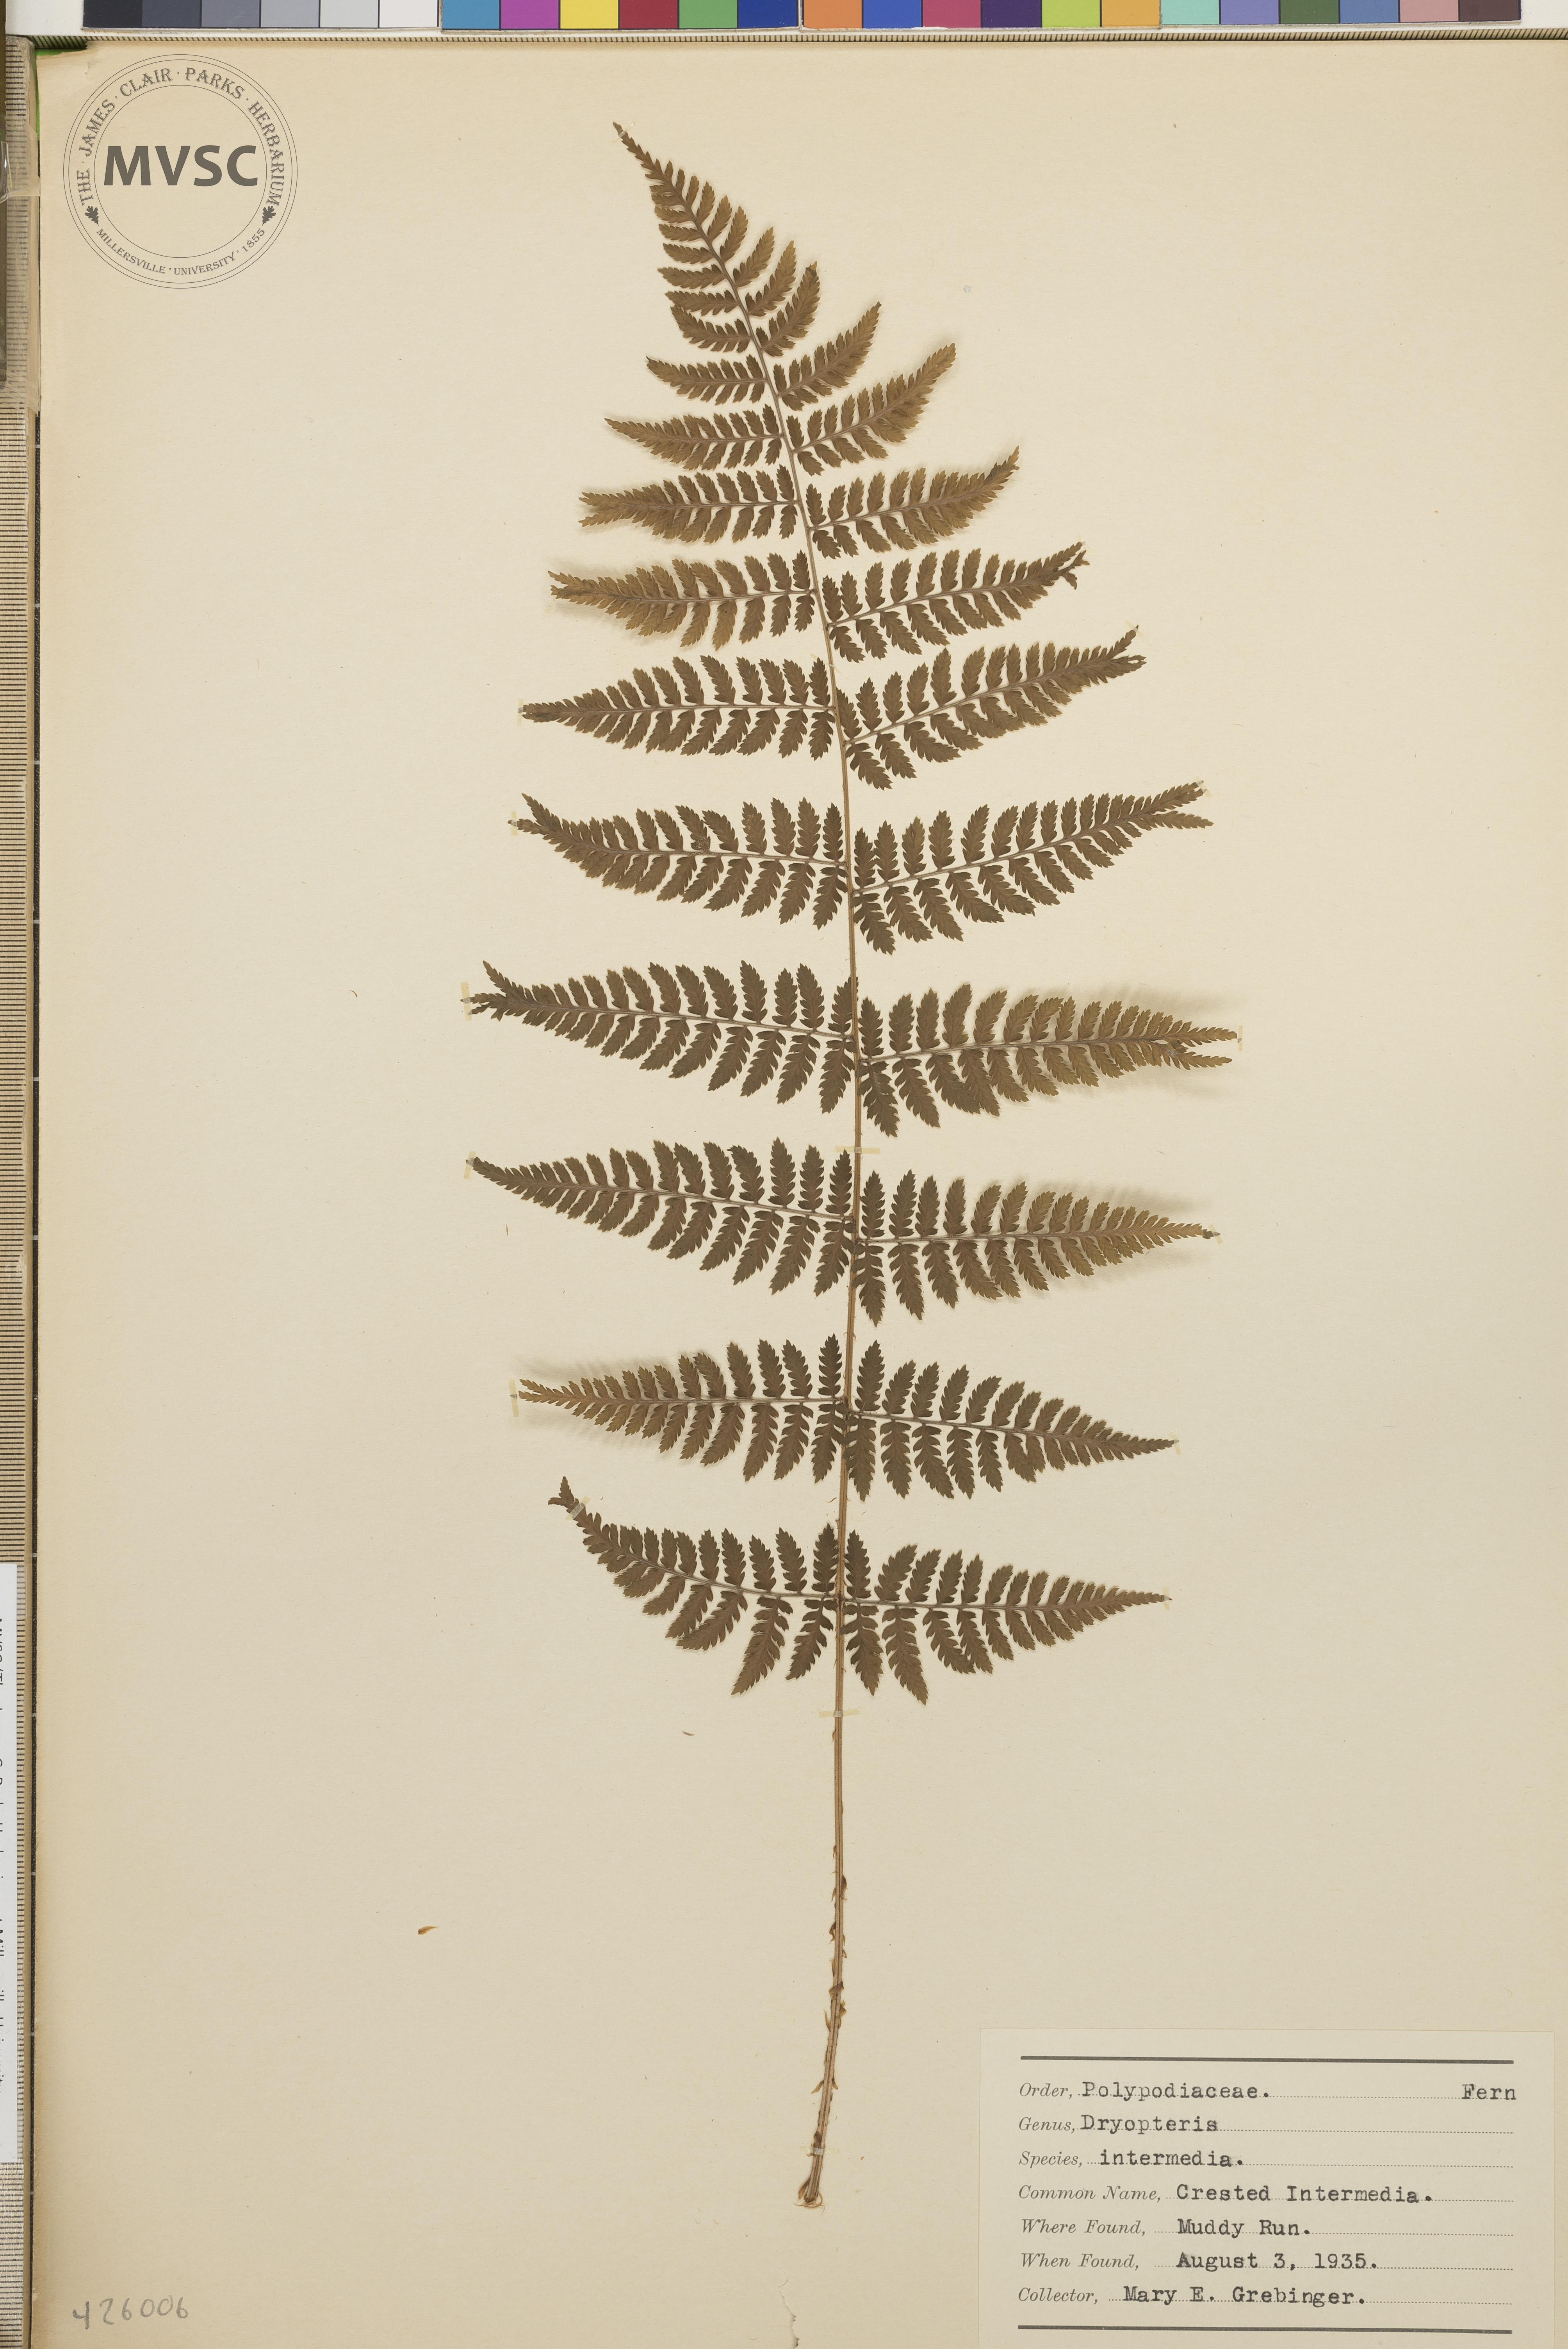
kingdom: Plantae
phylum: Tracheophyta
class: Polypodiopsida
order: Polypodiales
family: Dryopteridaceae
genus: Dryopteris
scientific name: Dryopteris intermedia
